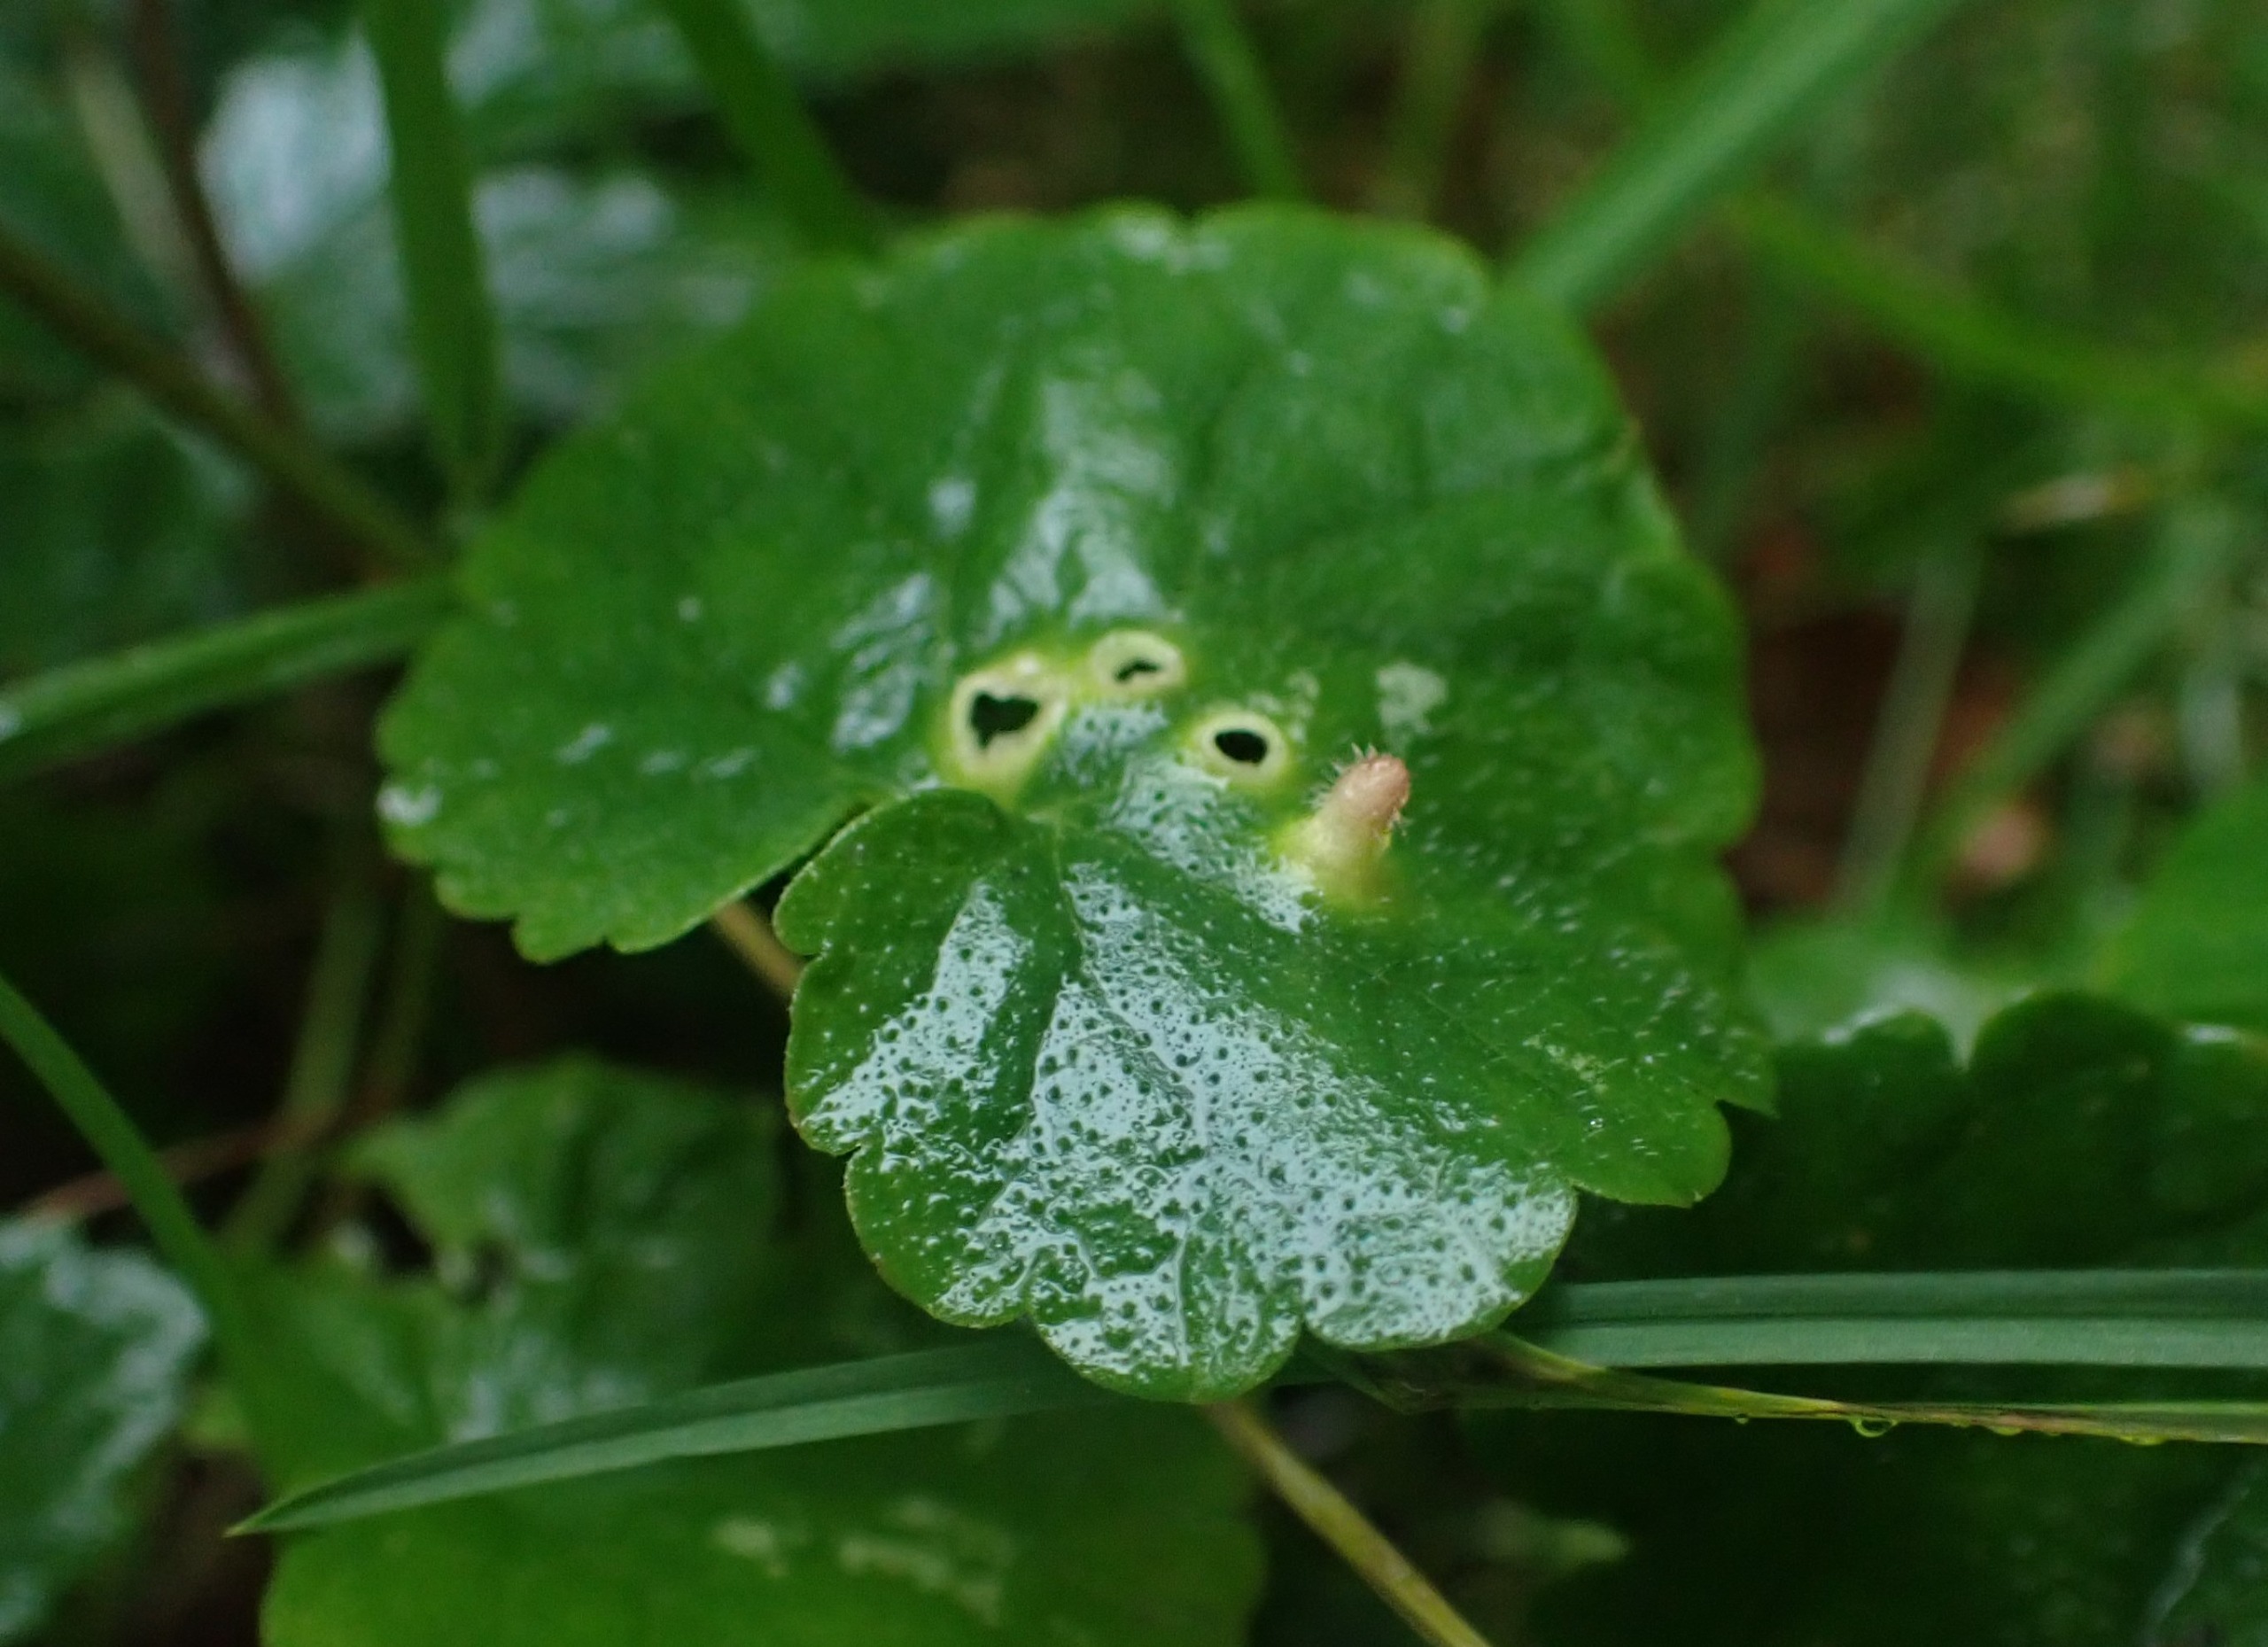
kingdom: Animalia
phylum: Arthropoda
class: Insecta
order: Diptera
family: Cecidomyiidae
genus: Rondaniola
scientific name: Rondaniola bursaria
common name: Hattifnatgalmyg
